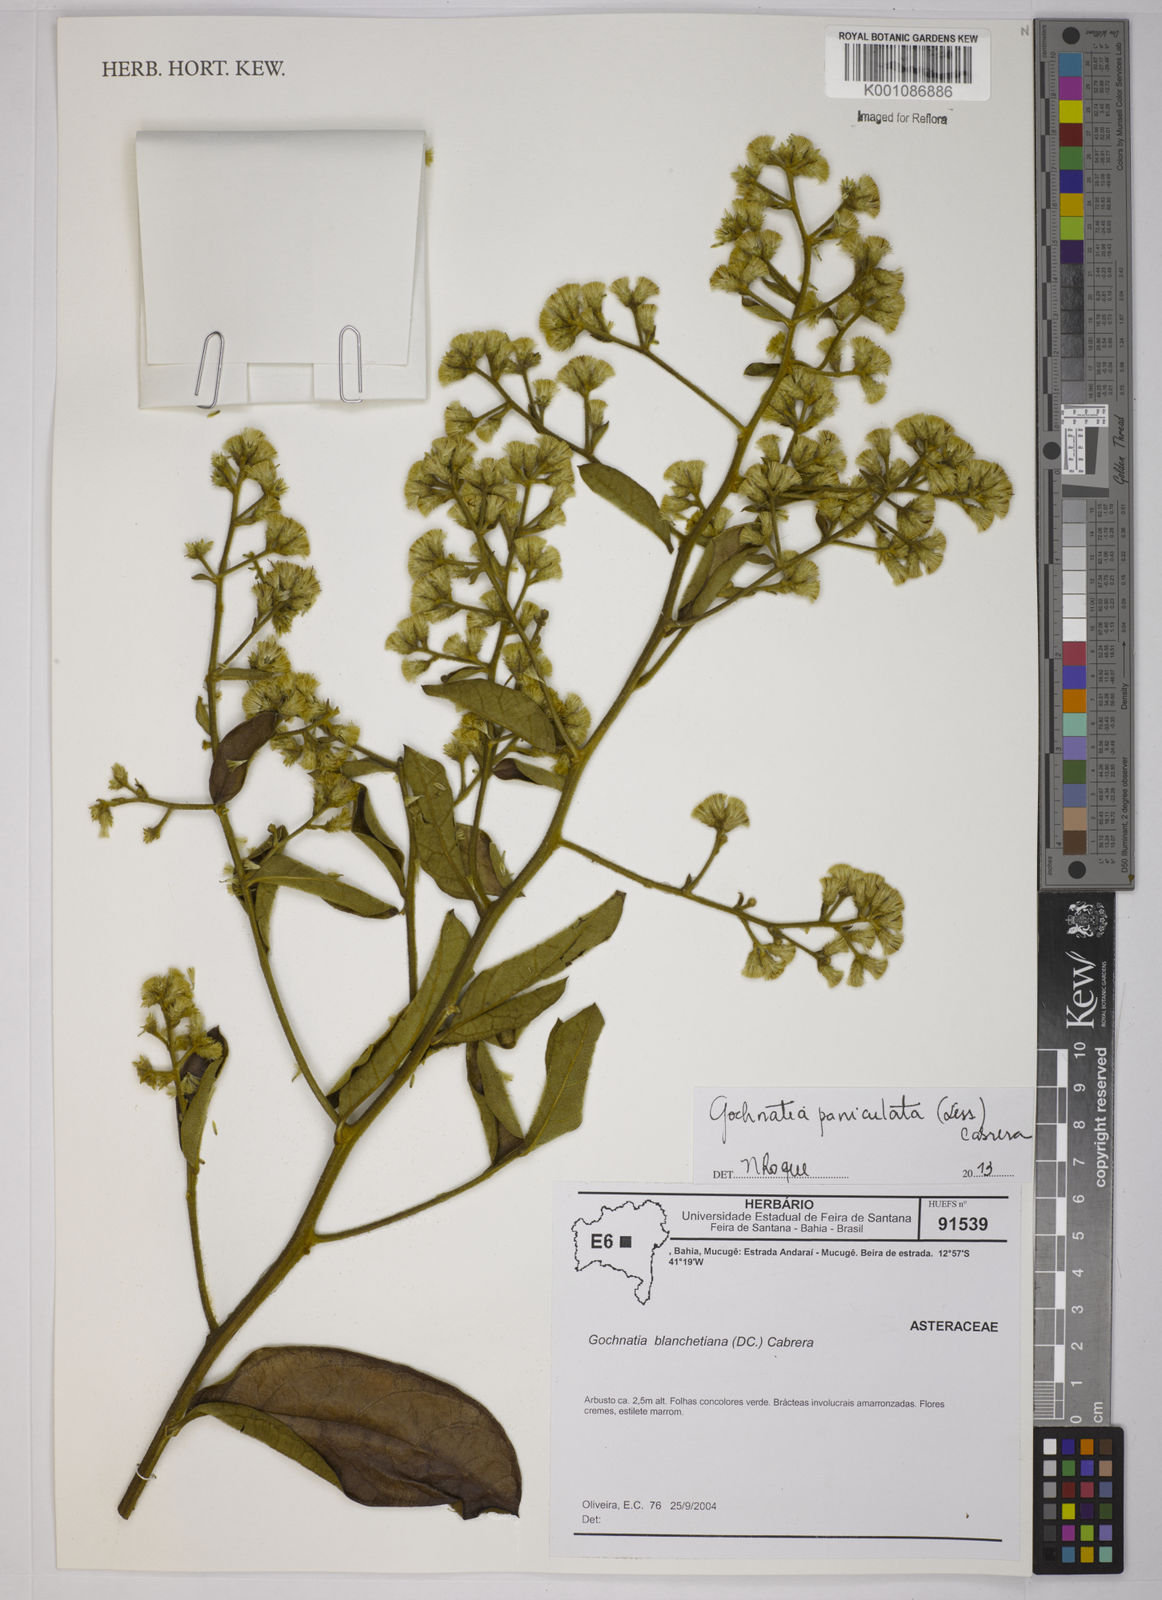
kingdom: Plantae
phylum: Tracheophyta
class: Magnoliopsida
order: Asterales
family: Asteraceae
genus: Moquiniastrum
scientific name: Moquiniastrum paniculatum
